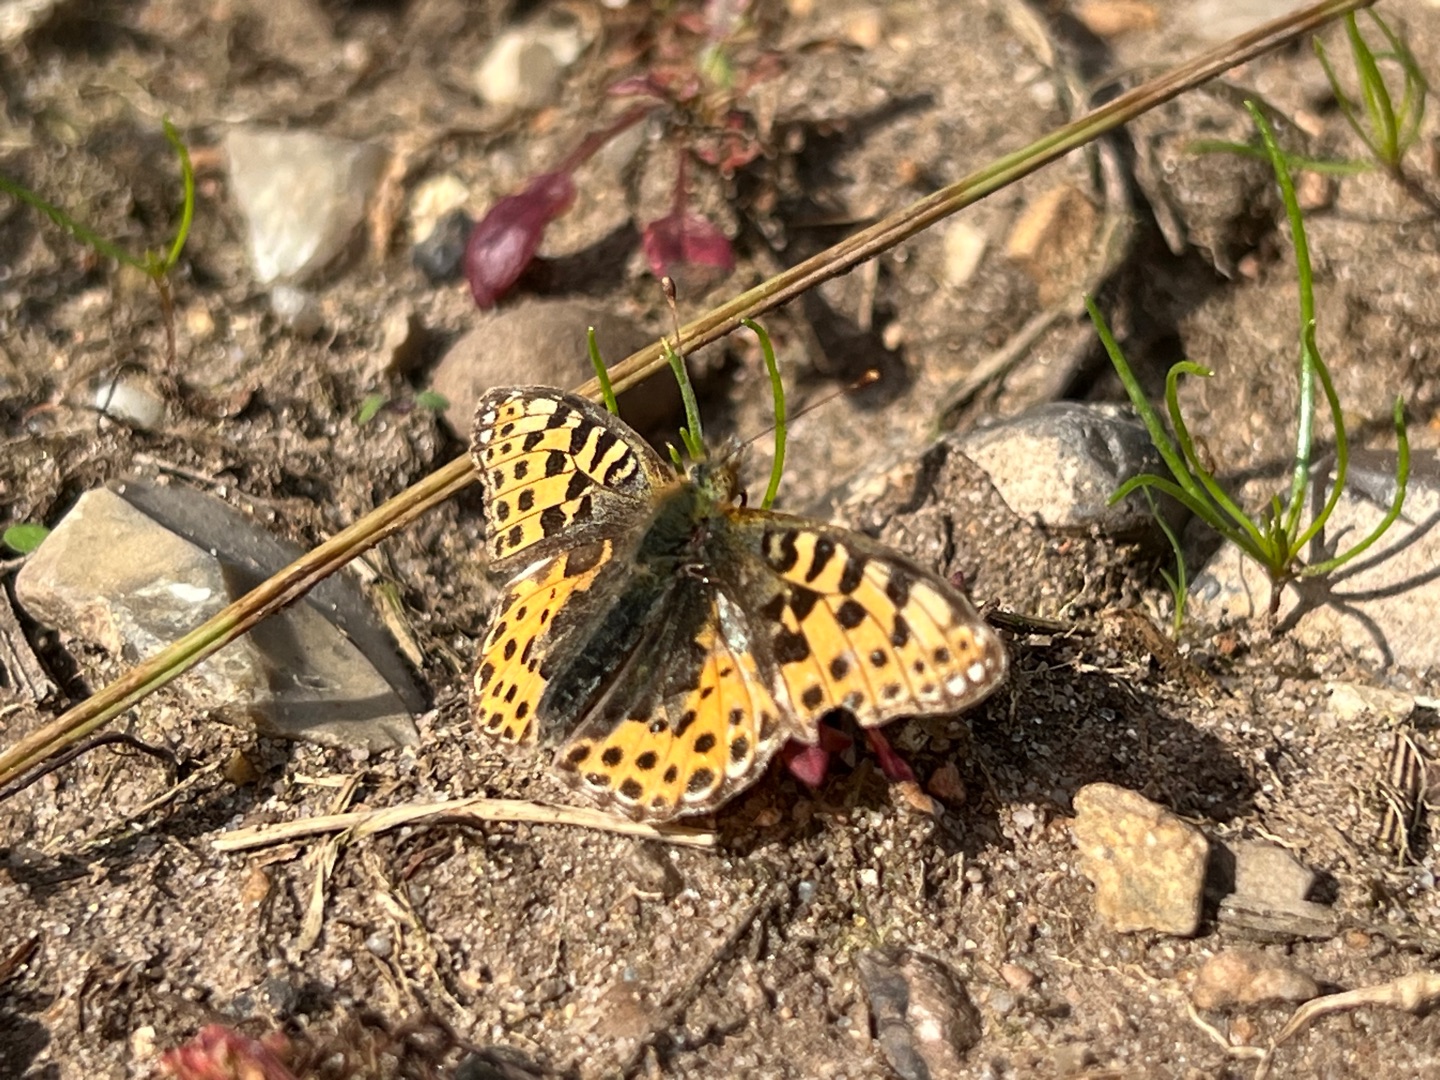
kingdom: Animalia
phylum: Arthropoda
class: Insecta
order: Lepidoptera
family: Nymphalidae
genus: Issoria
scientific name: Issoria lathonia
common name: Storplettet perlemorsommerfugl
